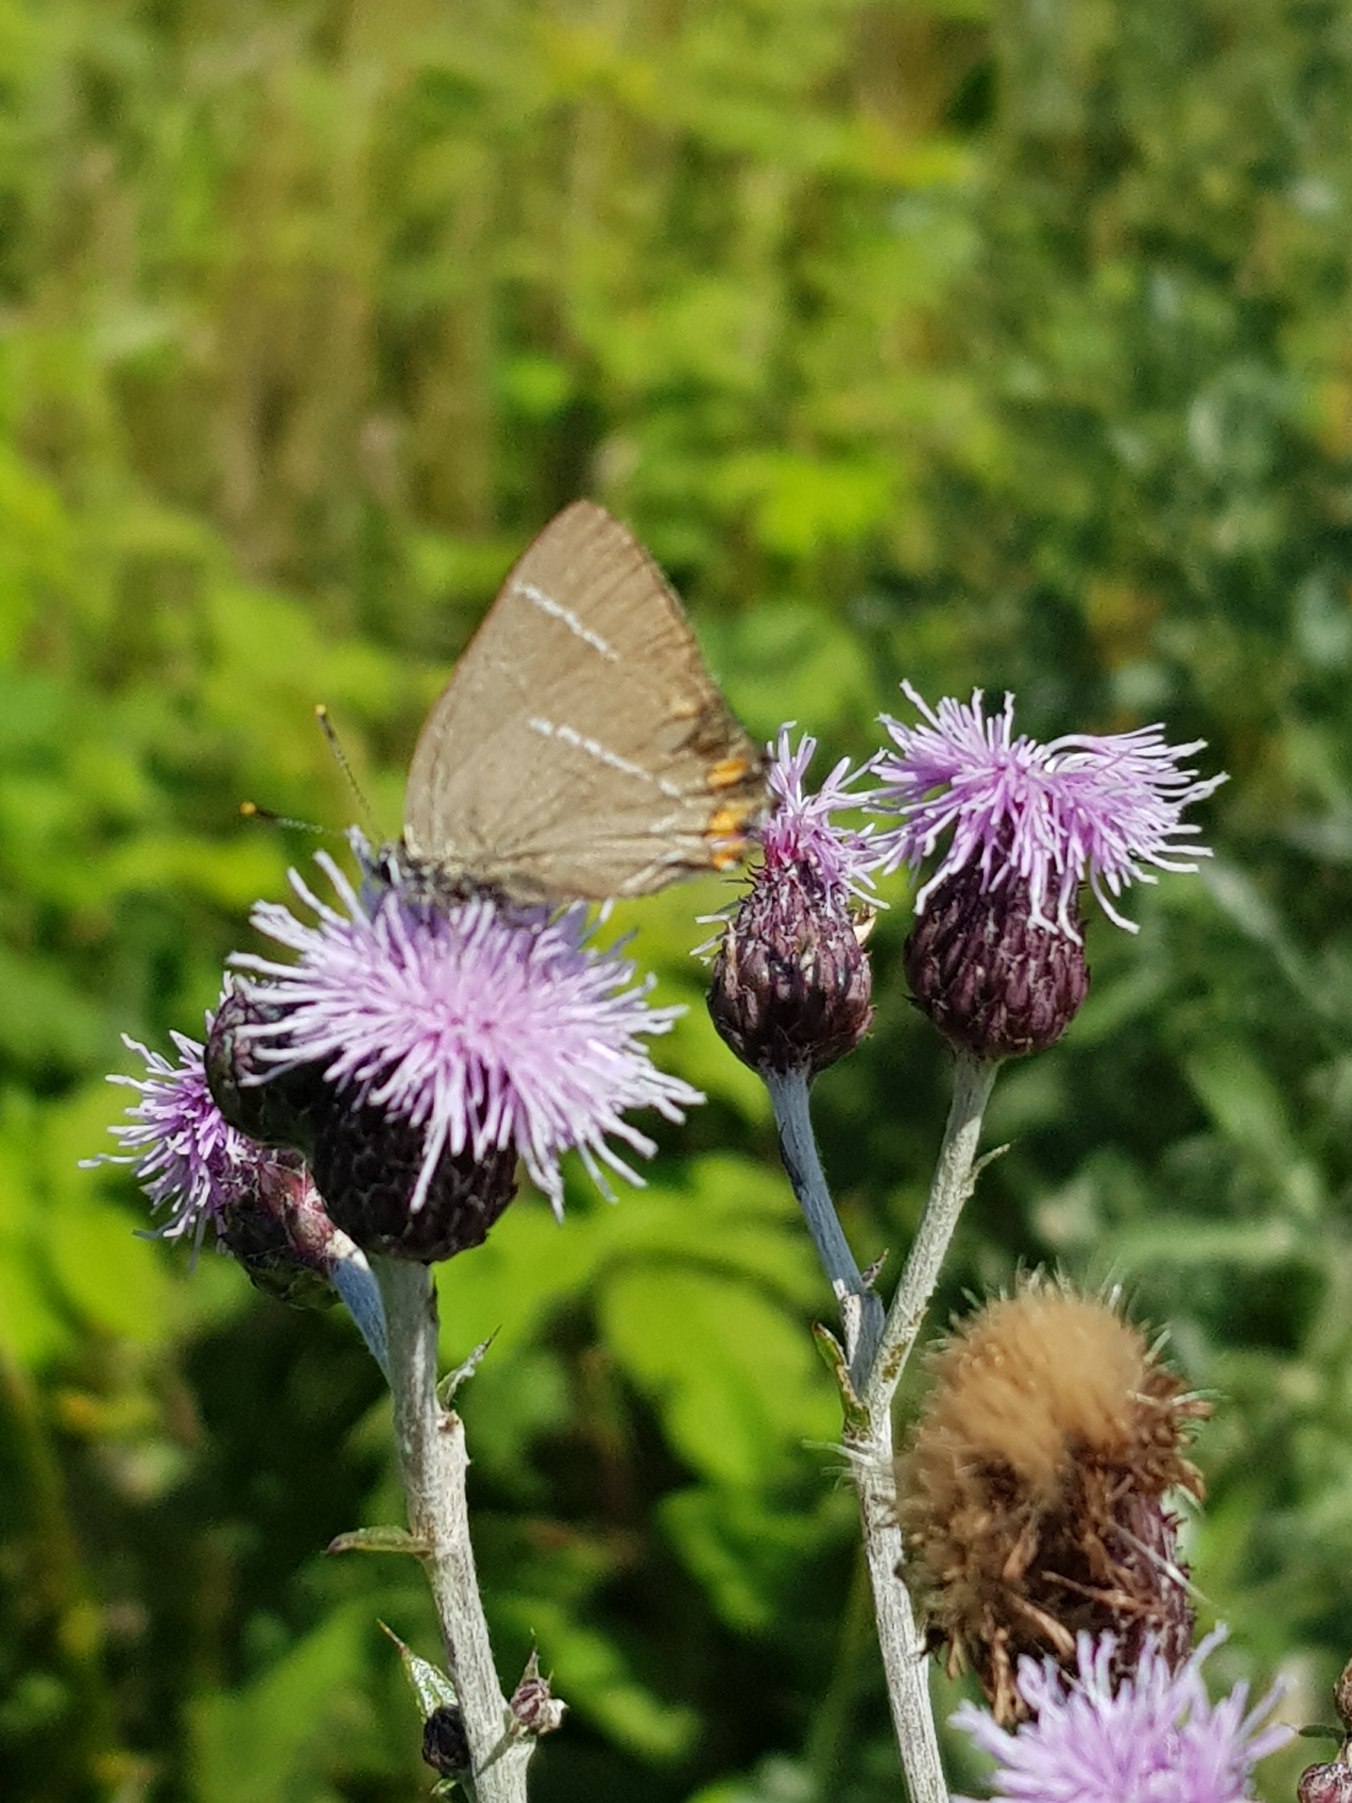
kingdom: Animalia
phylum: Arthropoda
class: Insecta
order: Lepidoptera
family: Lycaenidae
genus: Satyrium
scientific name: Satyrium w-album
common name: Det hvide W
